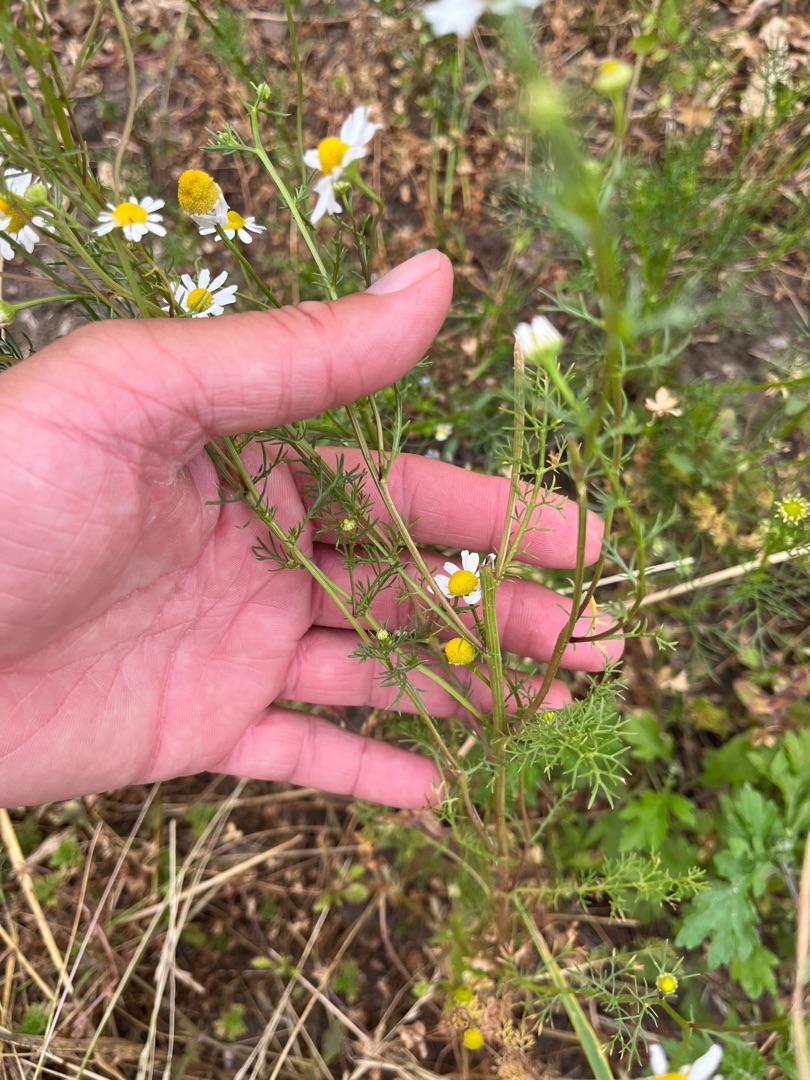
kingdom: Plantae
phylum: Tracheophyta
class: Magnoliopsida
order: Asterales
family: Asteraceae
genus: Matricaria
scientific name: Matricaria chamomilla
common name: Vellugtende kamille
